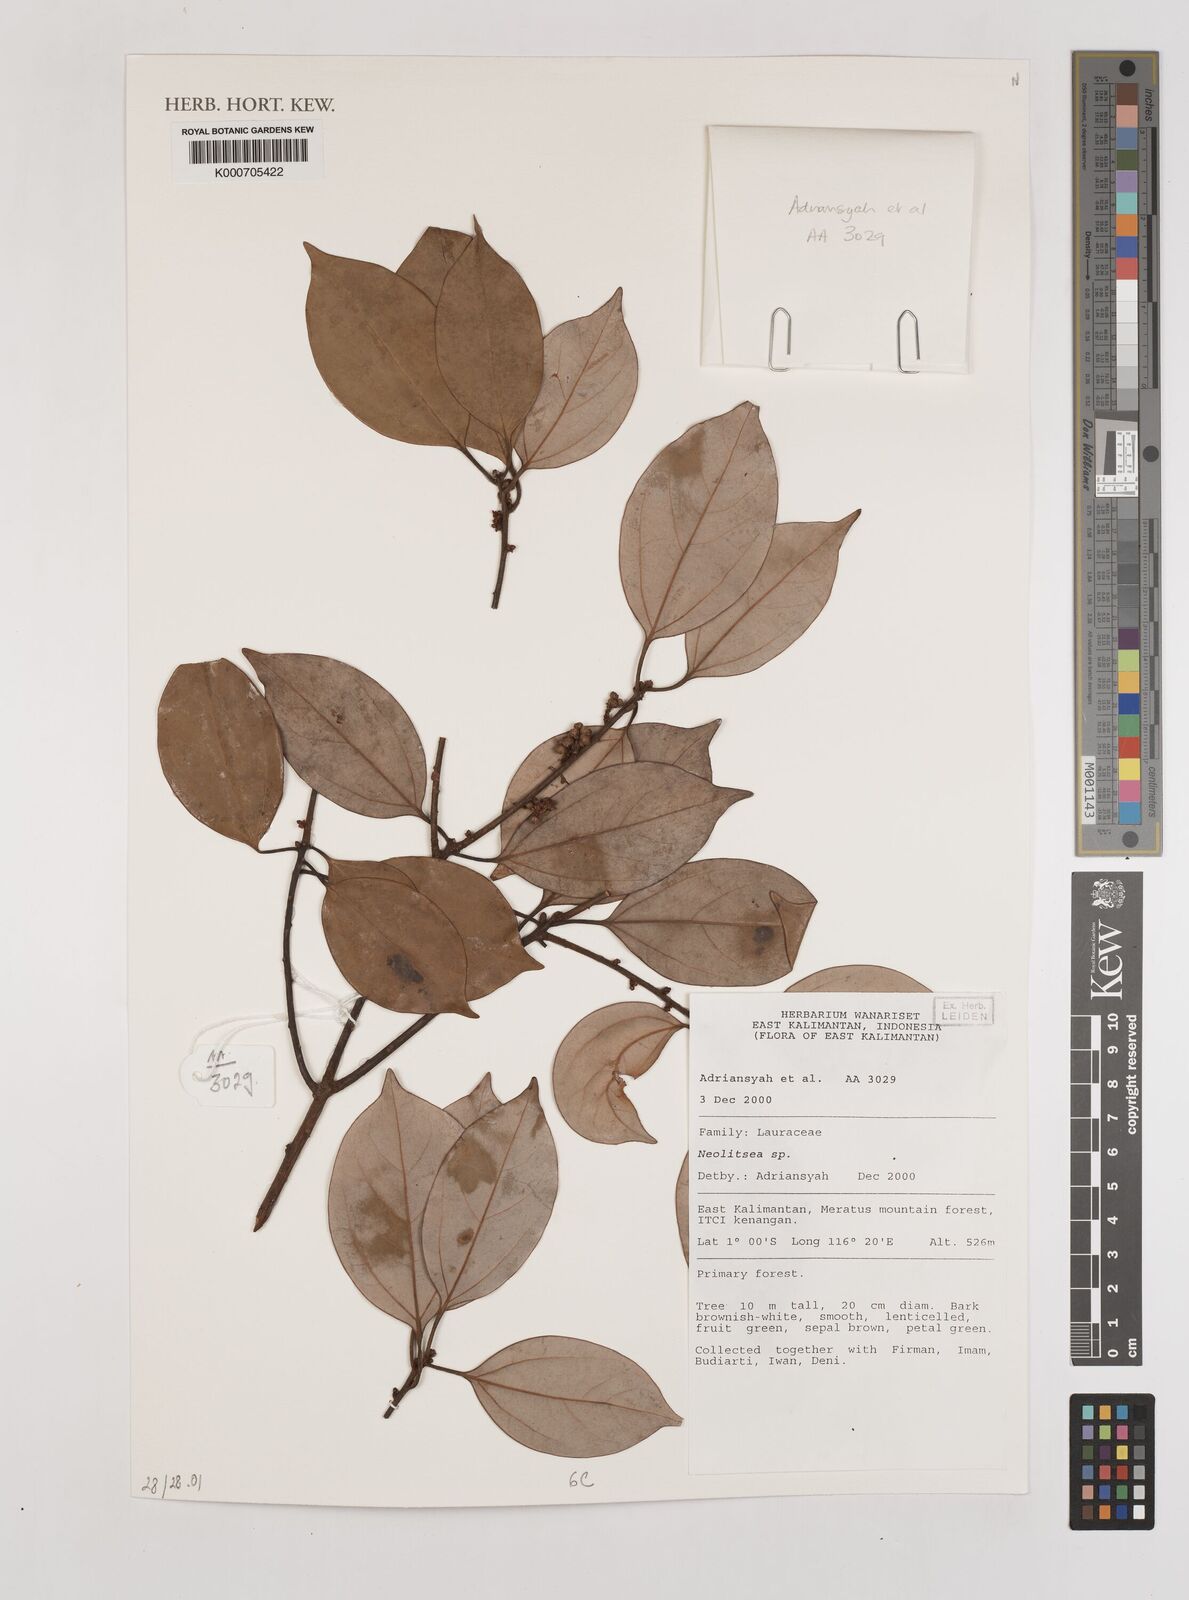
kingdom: Plantae
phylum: Tracheophyta
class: Magnoliopsida
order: Laurales
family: Lauraceae
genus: Neolitsea
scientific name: Neolitsea
